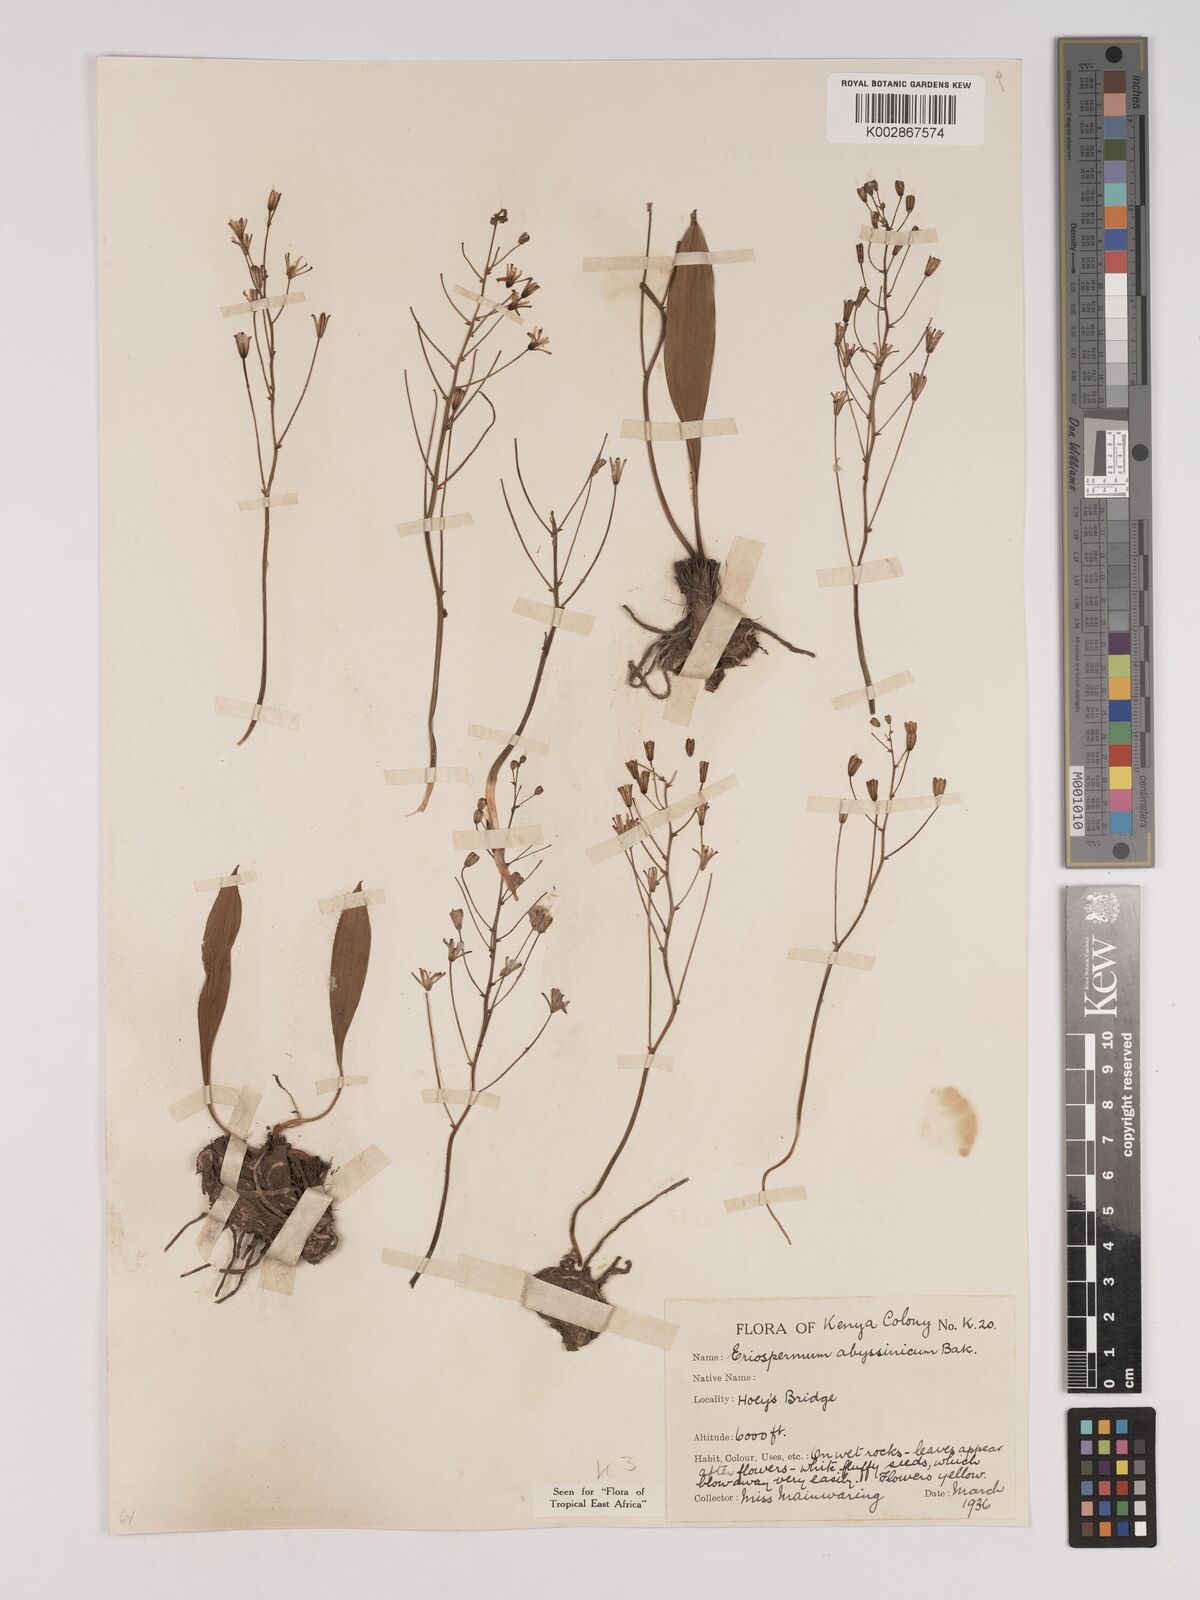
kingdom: Plantae
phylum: Tracheophyta
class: Liliopsida
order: Asparagales
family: Asparagaceae
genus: Eriospermum
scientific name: Eriospermum abyssinicum
